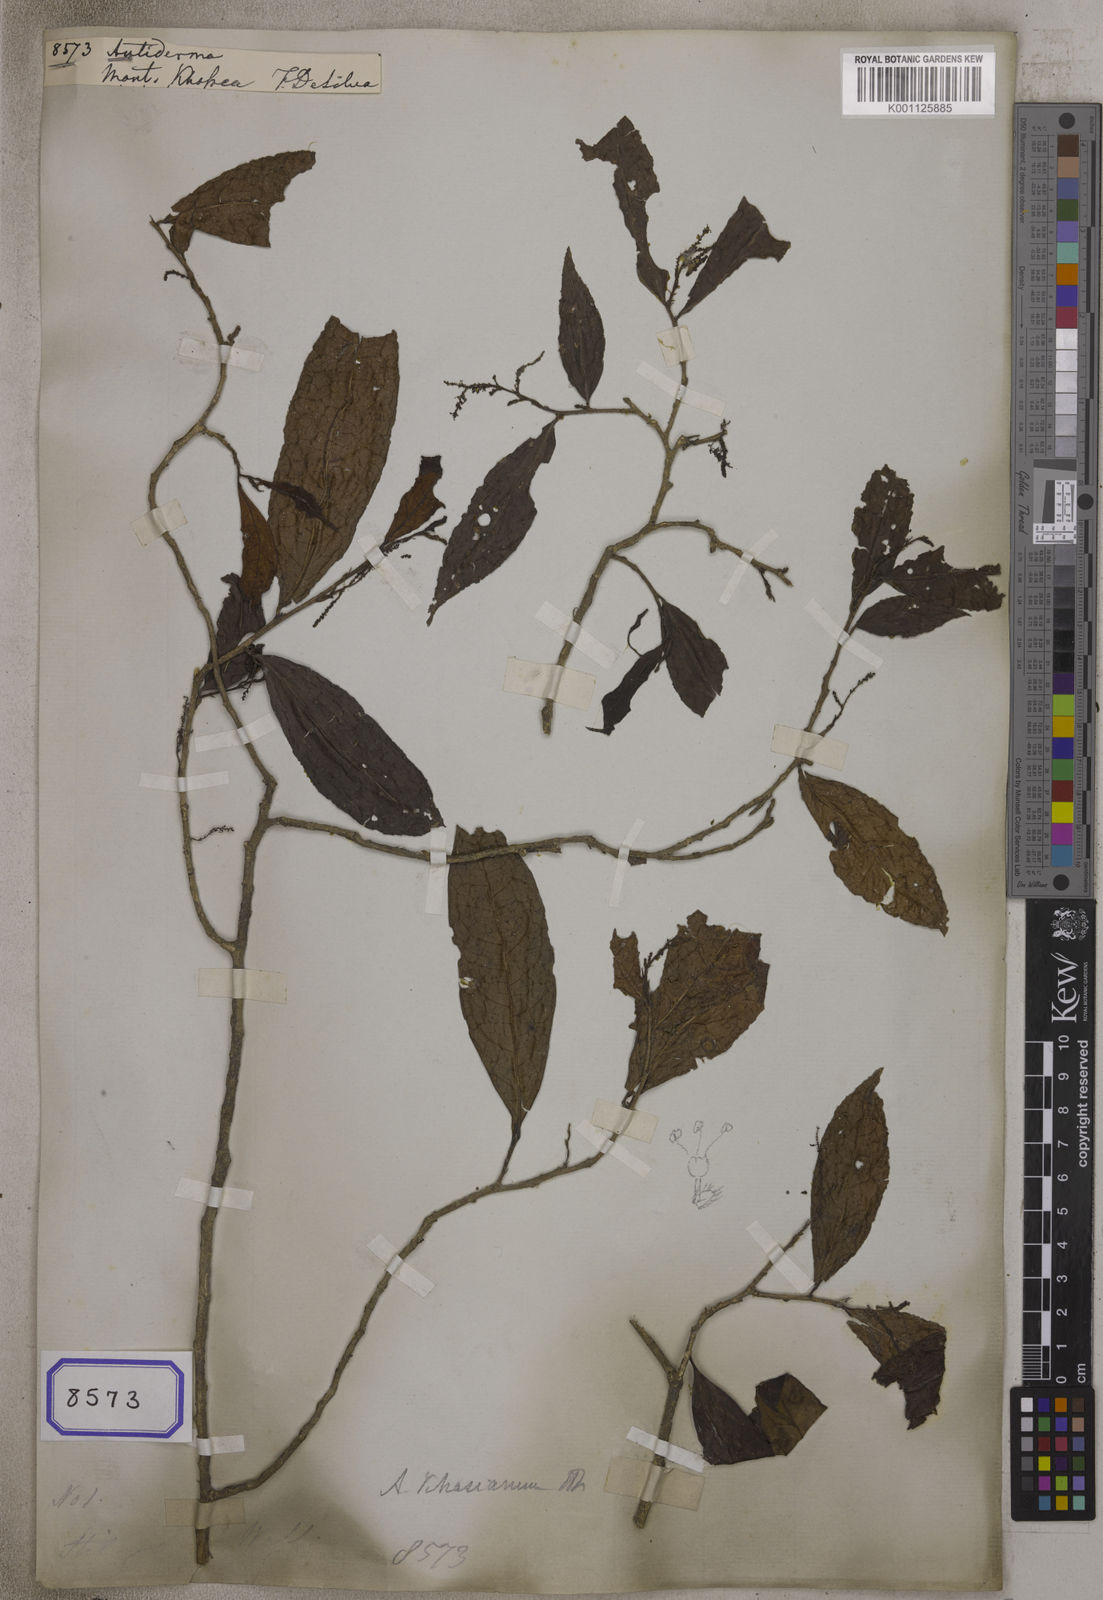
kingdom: Plantae
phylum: Tracheophyta
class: Magnoliopsida
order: Malpighiales
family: Phyllanthaceae
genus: Antidesma
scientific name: Antidesma
